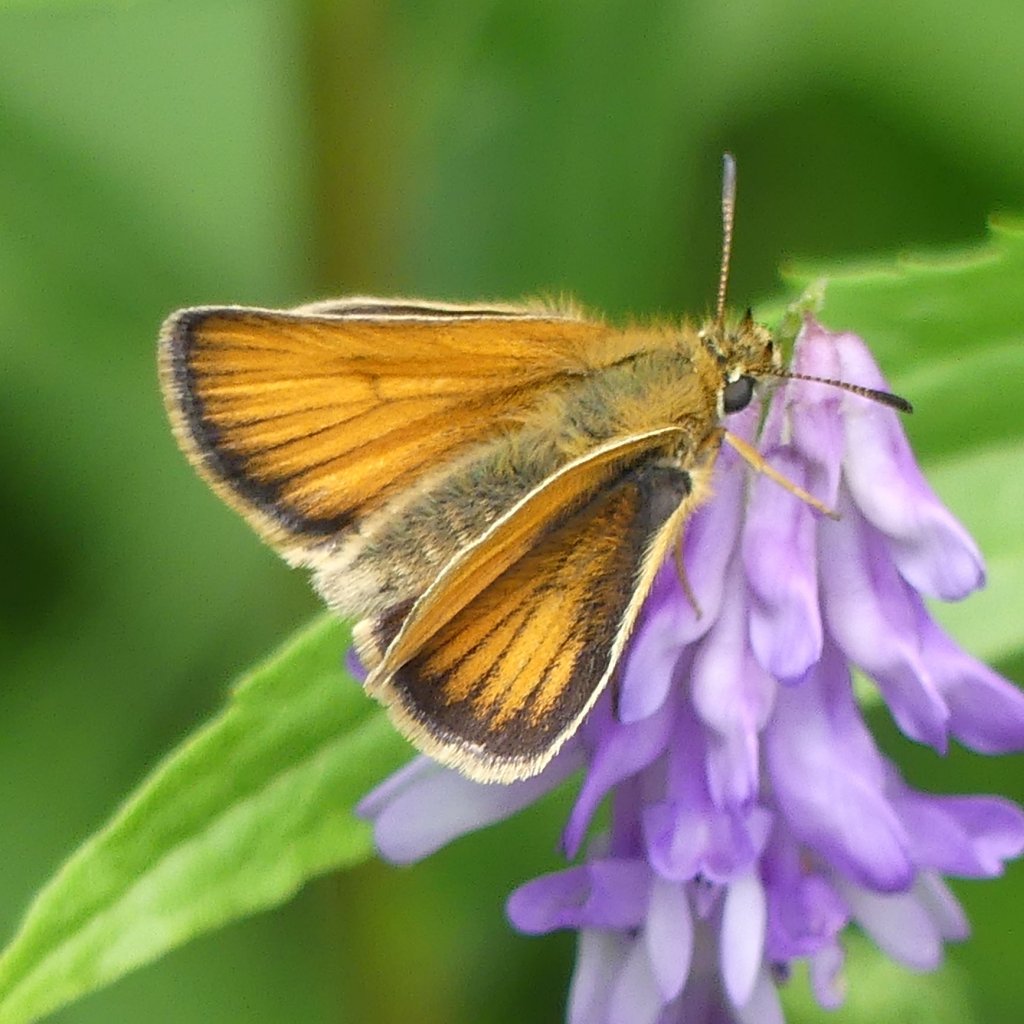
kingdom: Animalia
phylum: Arthropoda
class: Insecta
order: Lepidoptera
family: Hesperiidae
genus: Thymelicus
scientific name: Thymelicus lineola
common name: European Skipper
